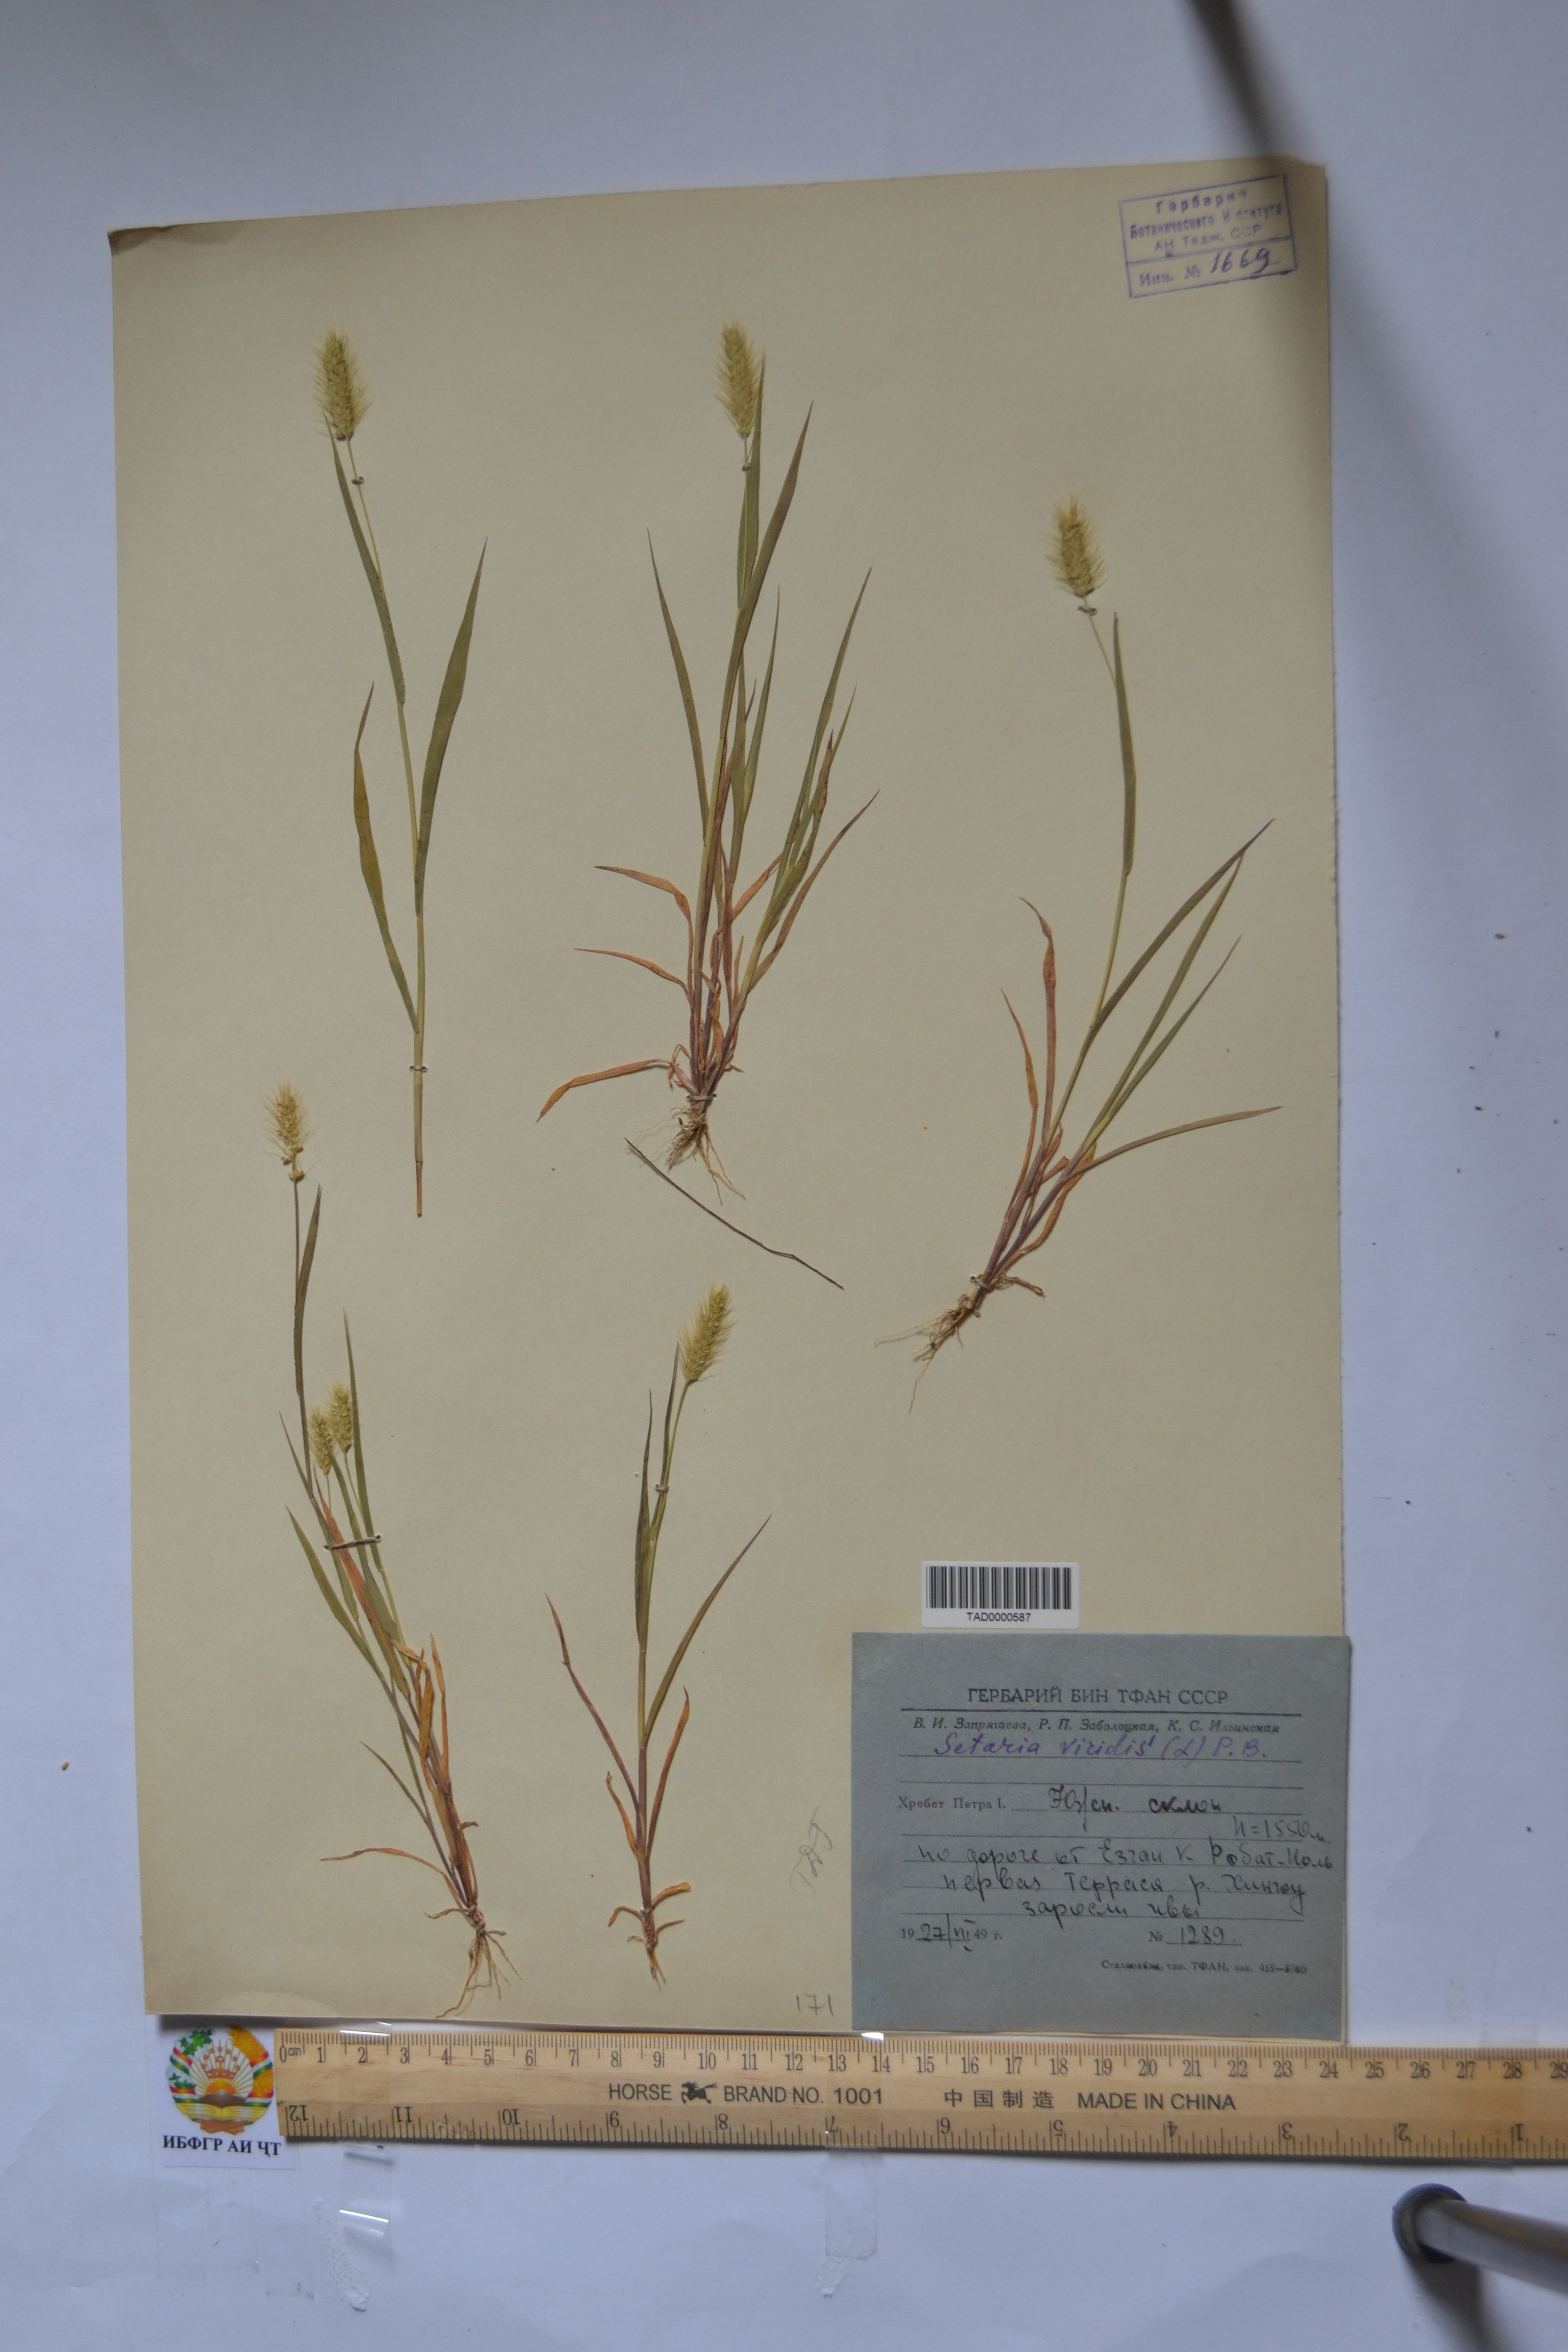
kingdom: Plantae
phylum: Tracheophyta
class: Liliopsida
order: Poales
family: Poaceae
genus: Setaria
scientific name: Setaria viridis
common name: Green bristlegrass
